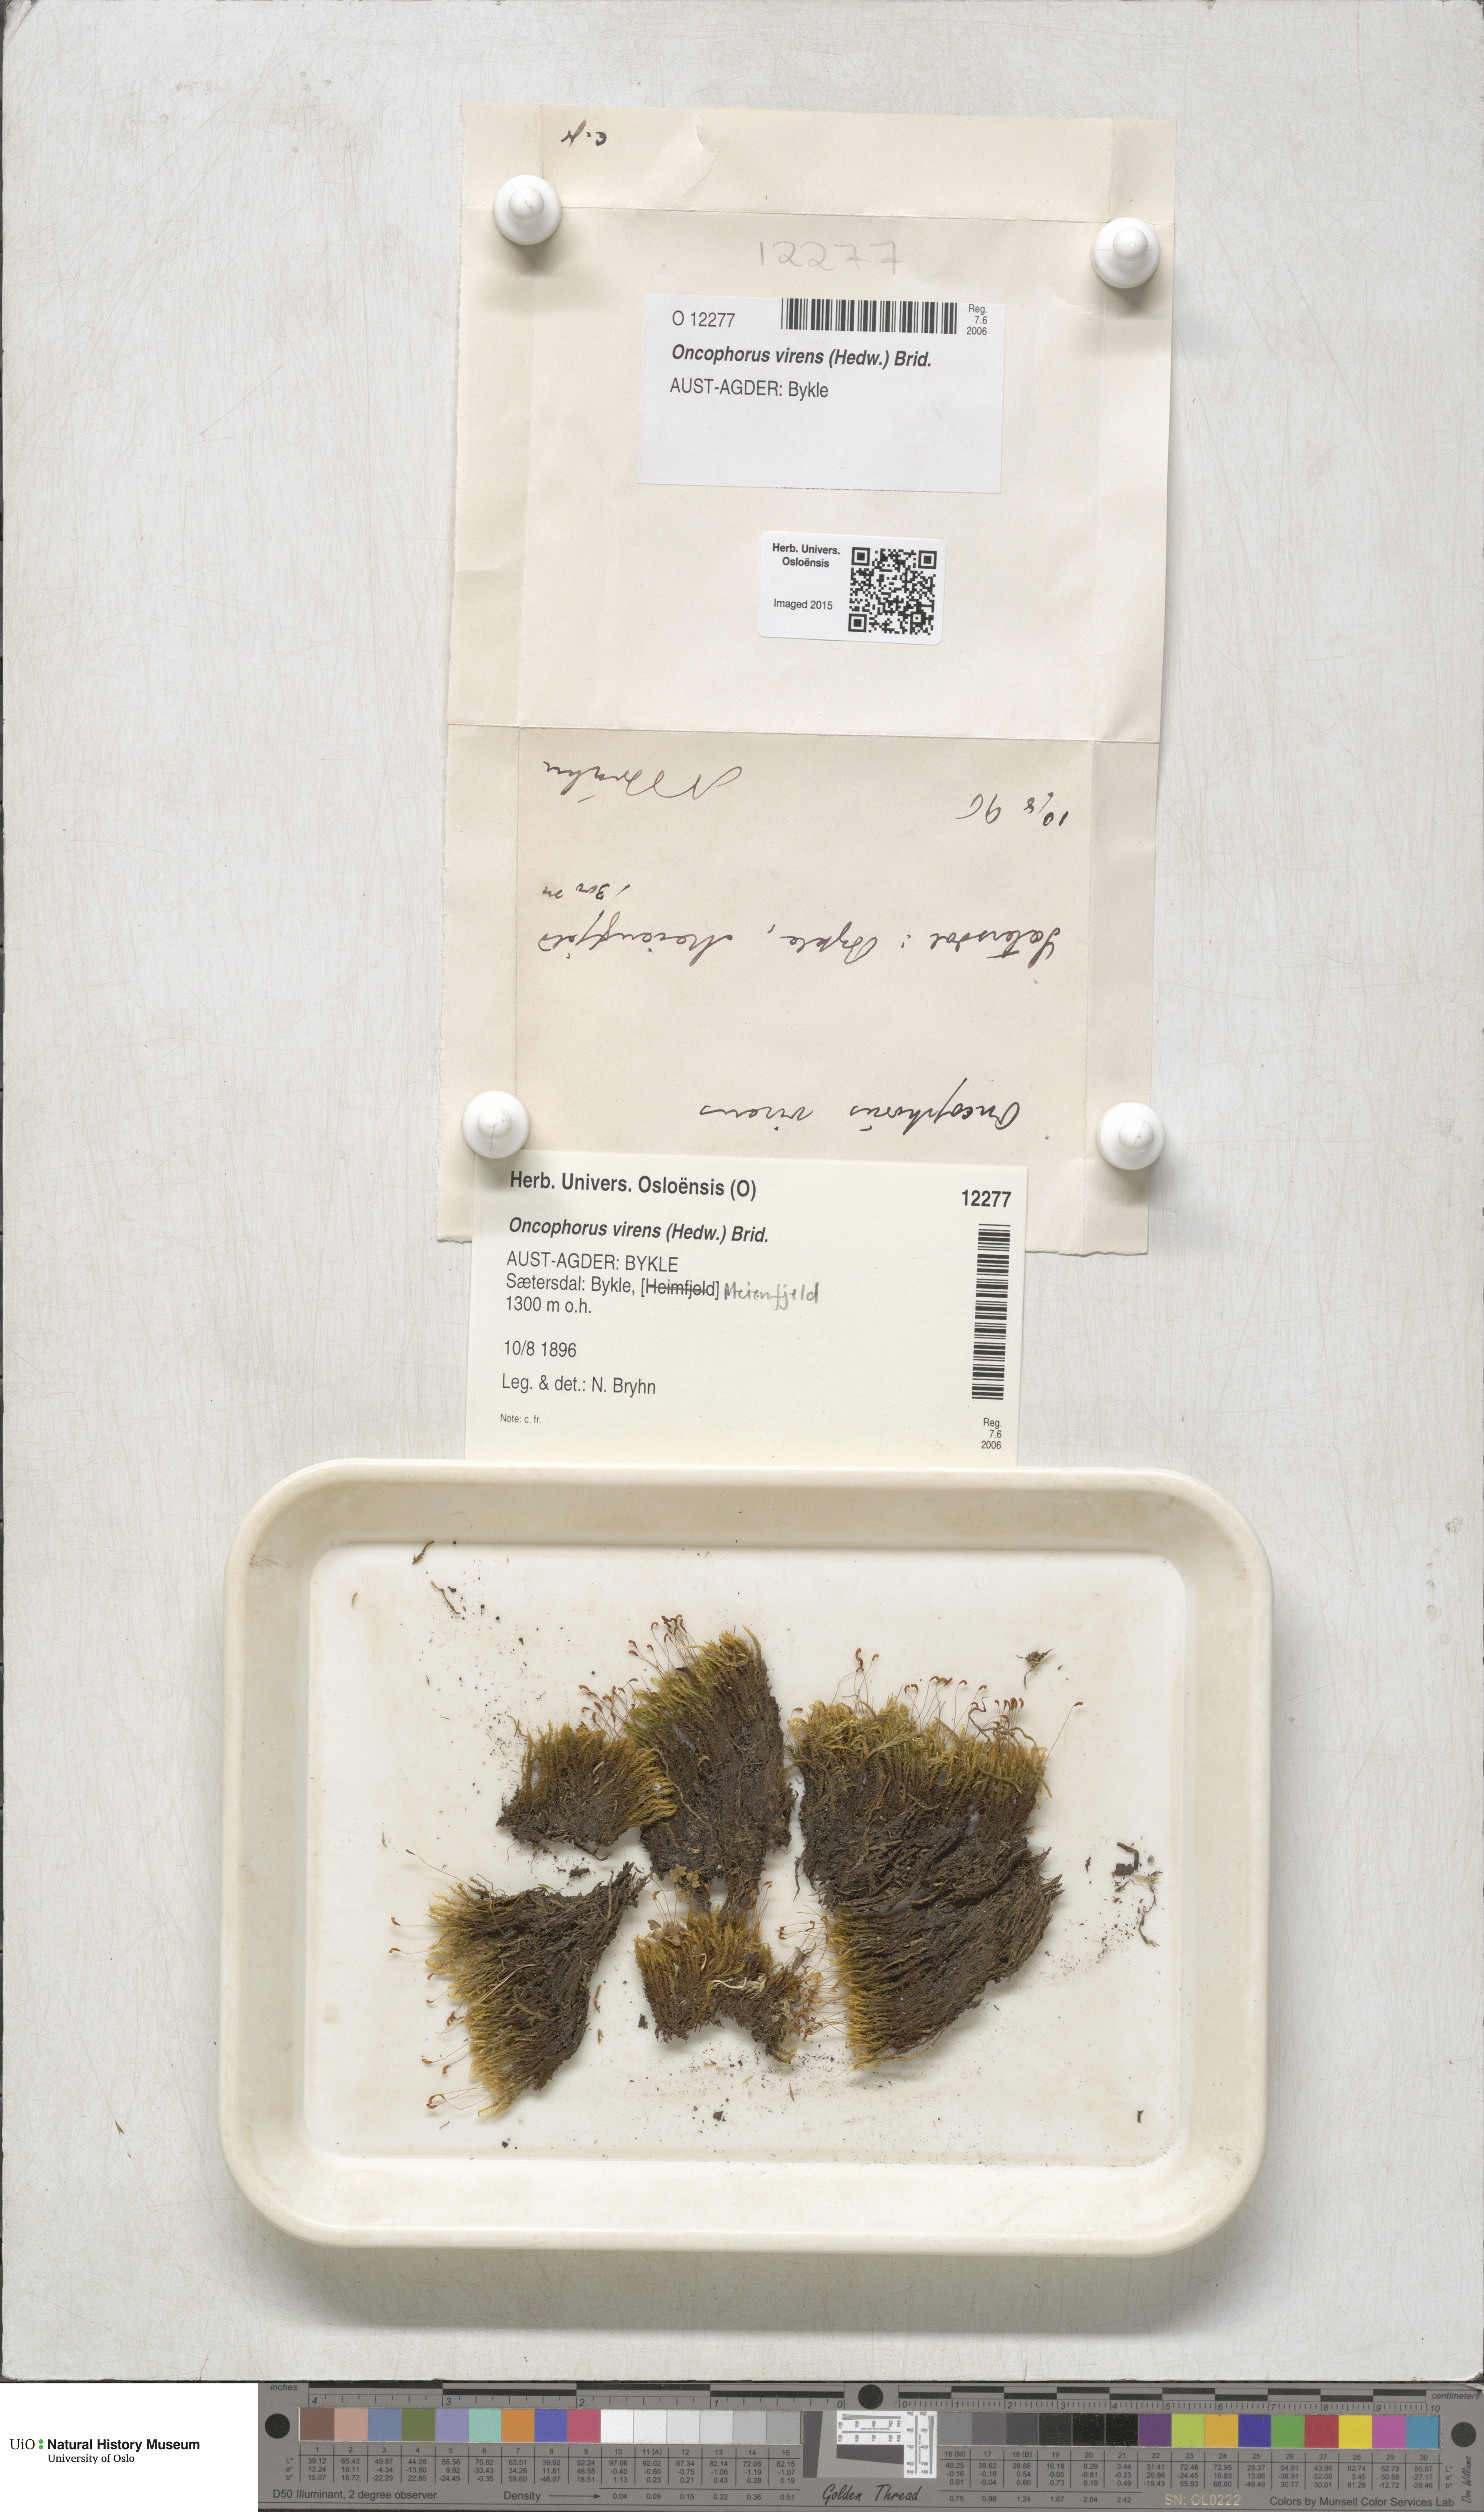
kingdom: Plantae
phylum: Bryophyta
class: Bryopsida
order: Dicranales
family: Rhabdoweisiaceae
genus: Oncophorus
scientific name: Oncophorus virens
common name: Green spur moss
